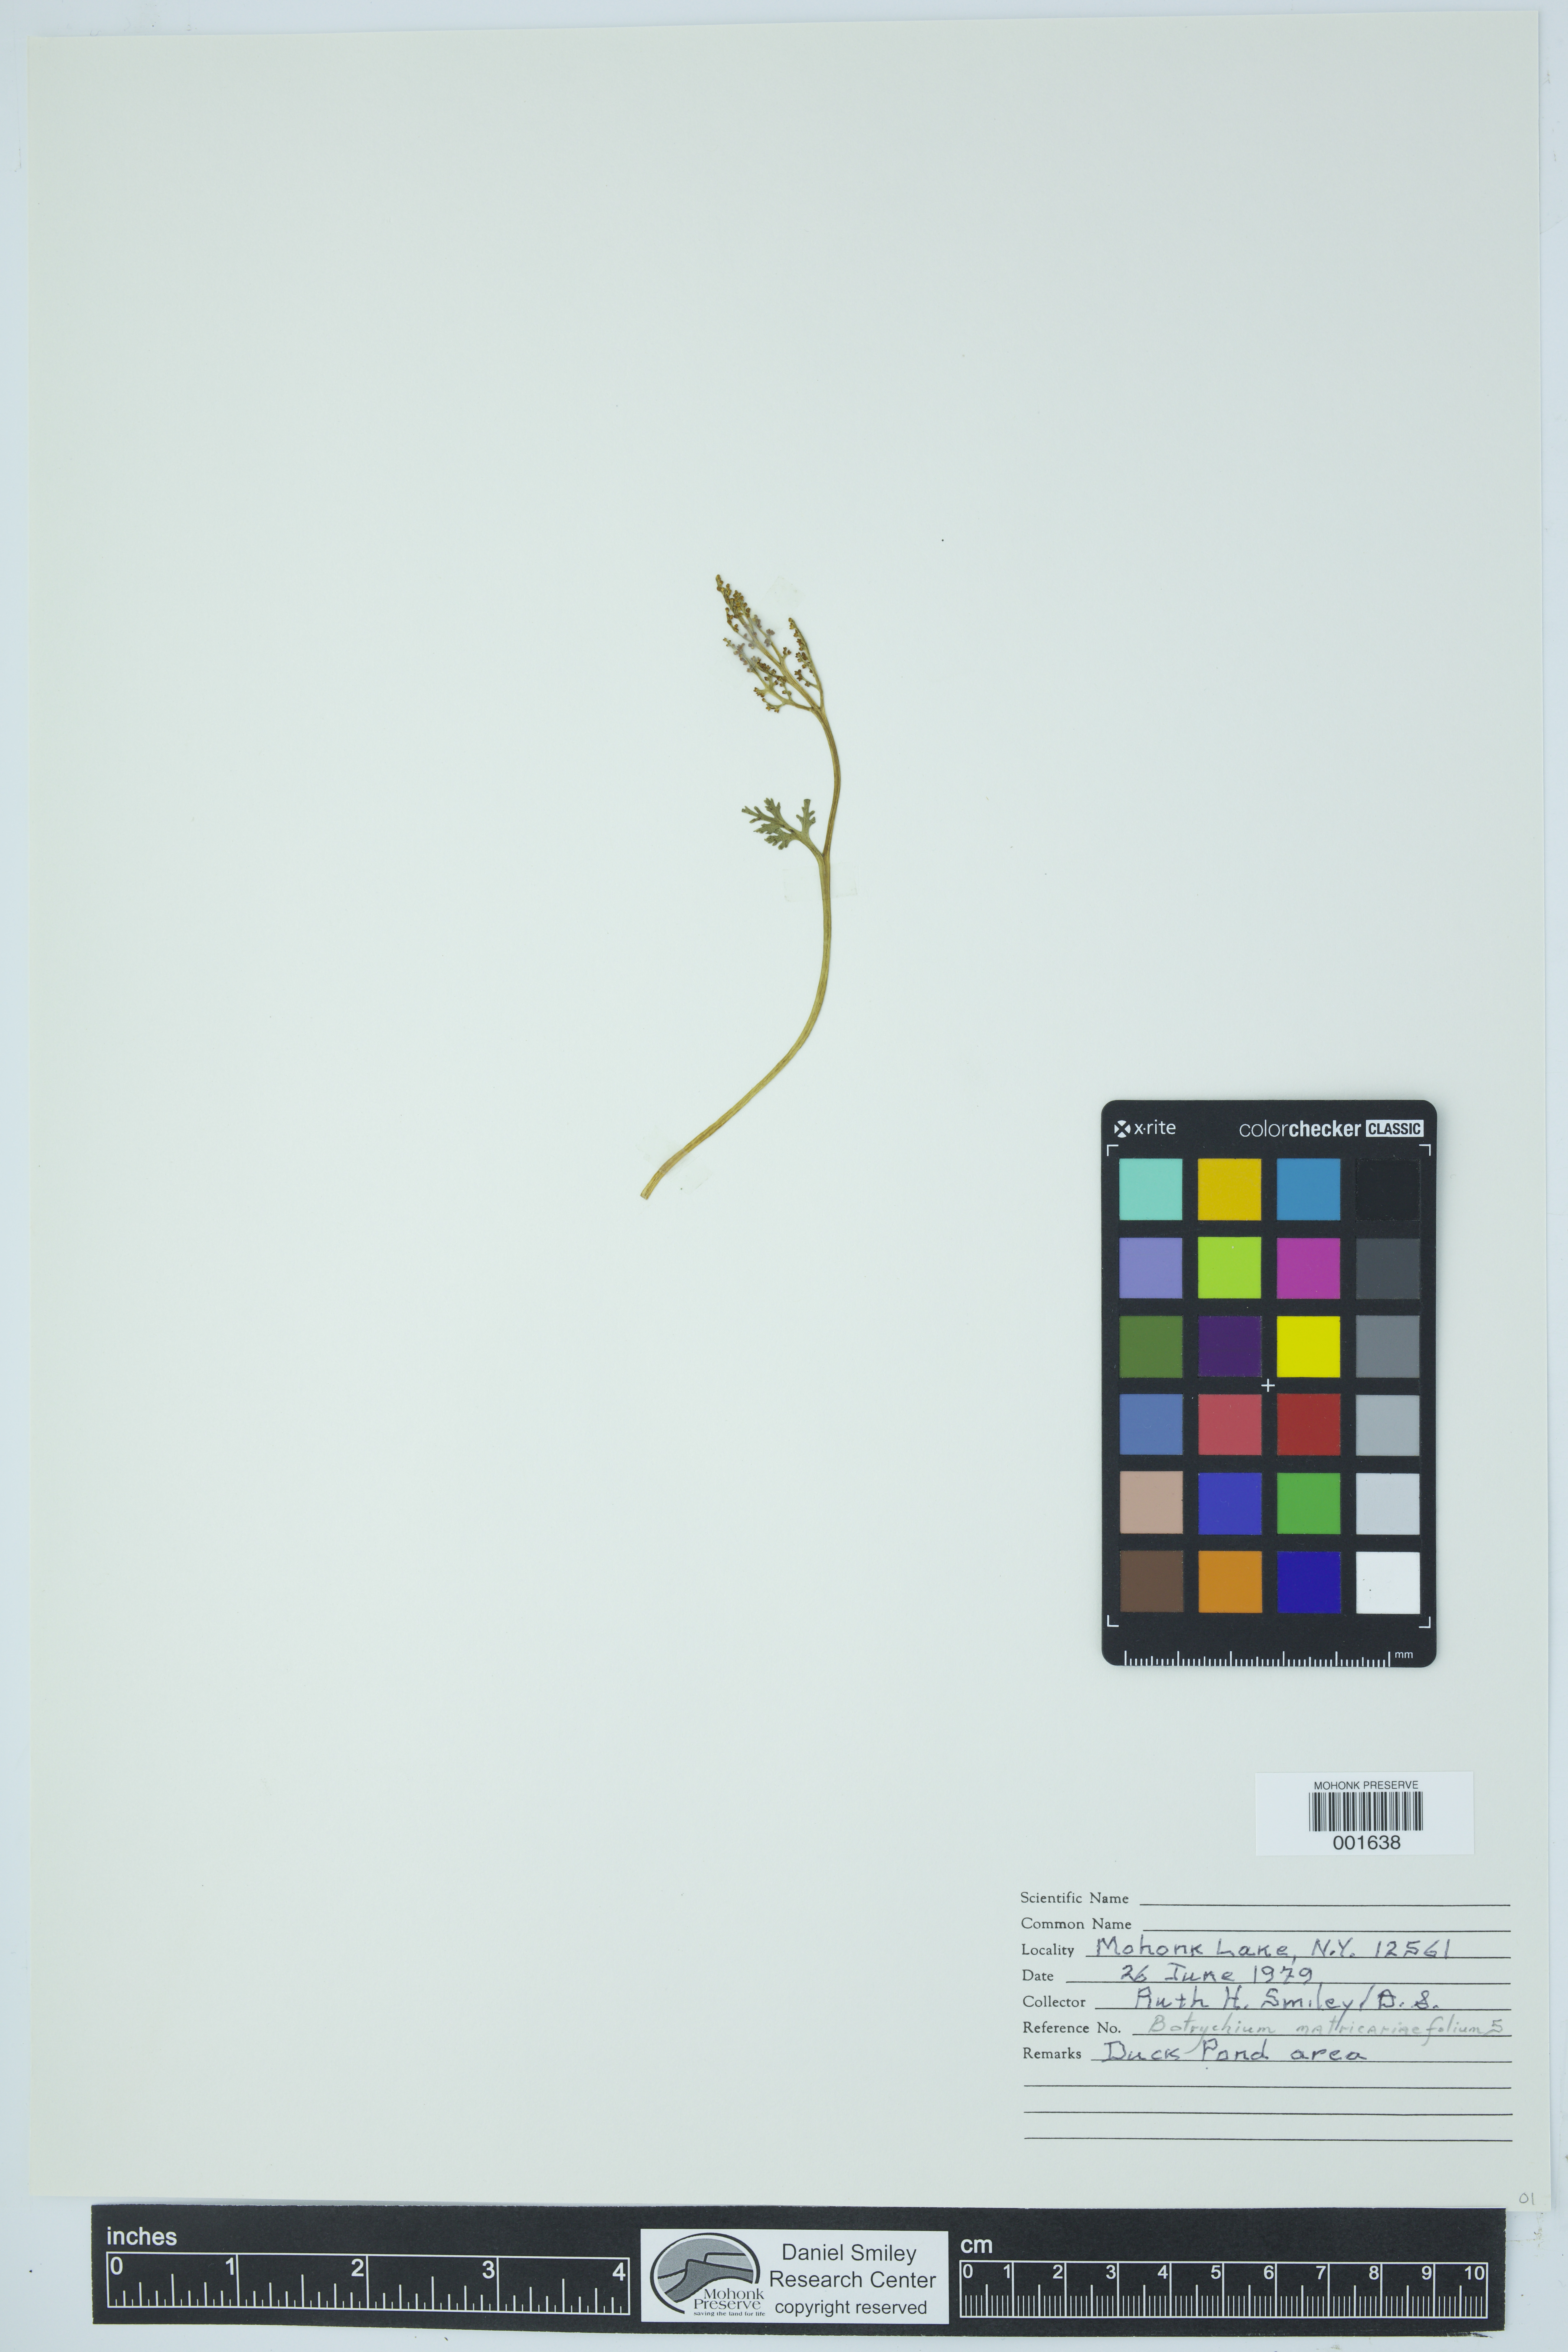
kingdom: Plantae
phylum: Tracheophyta
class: Polypodiopsida
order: Ophioglossales
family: Ophioglossaceae
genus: Botrychium
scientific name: Botrychium matricariifolium
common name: Branched moonwort
